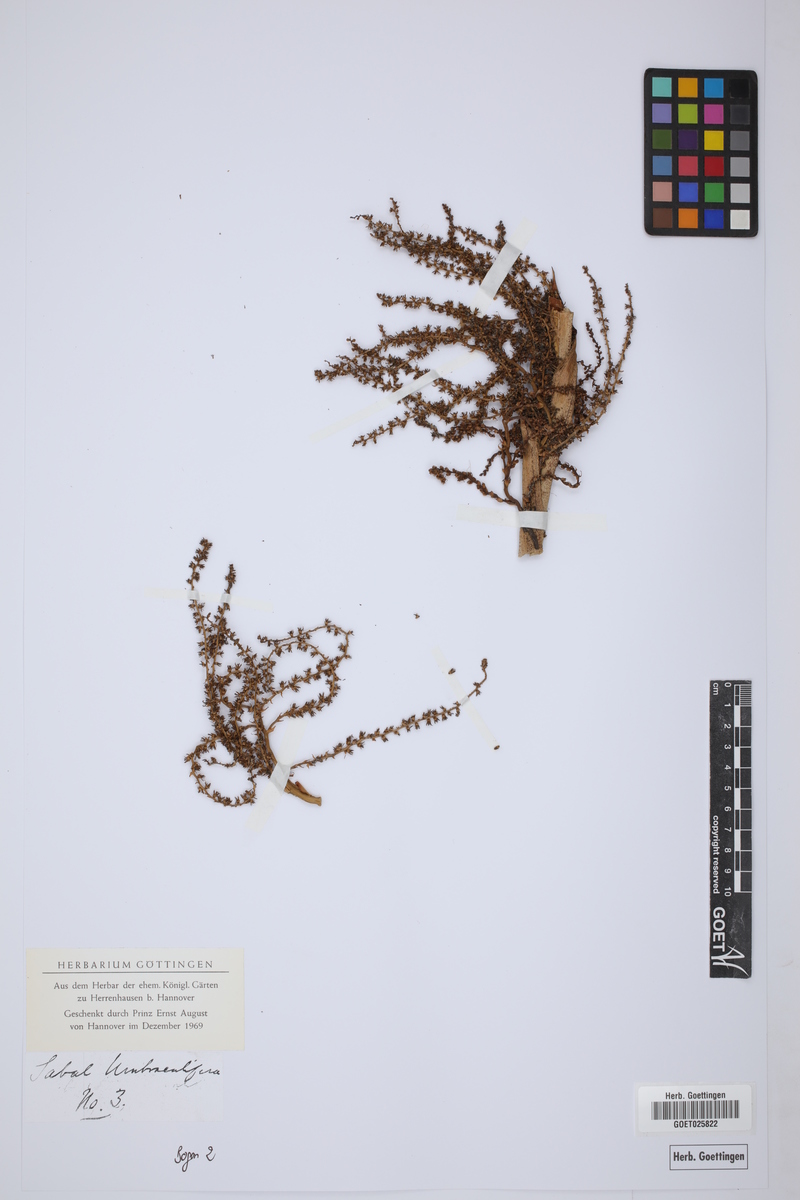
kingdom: Plantae
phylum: Tracheophyta
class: Liliopsida
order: Arecales
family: Arecaceae
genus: Sabal
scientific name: Sabal mexicana
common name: Texas palmetto
